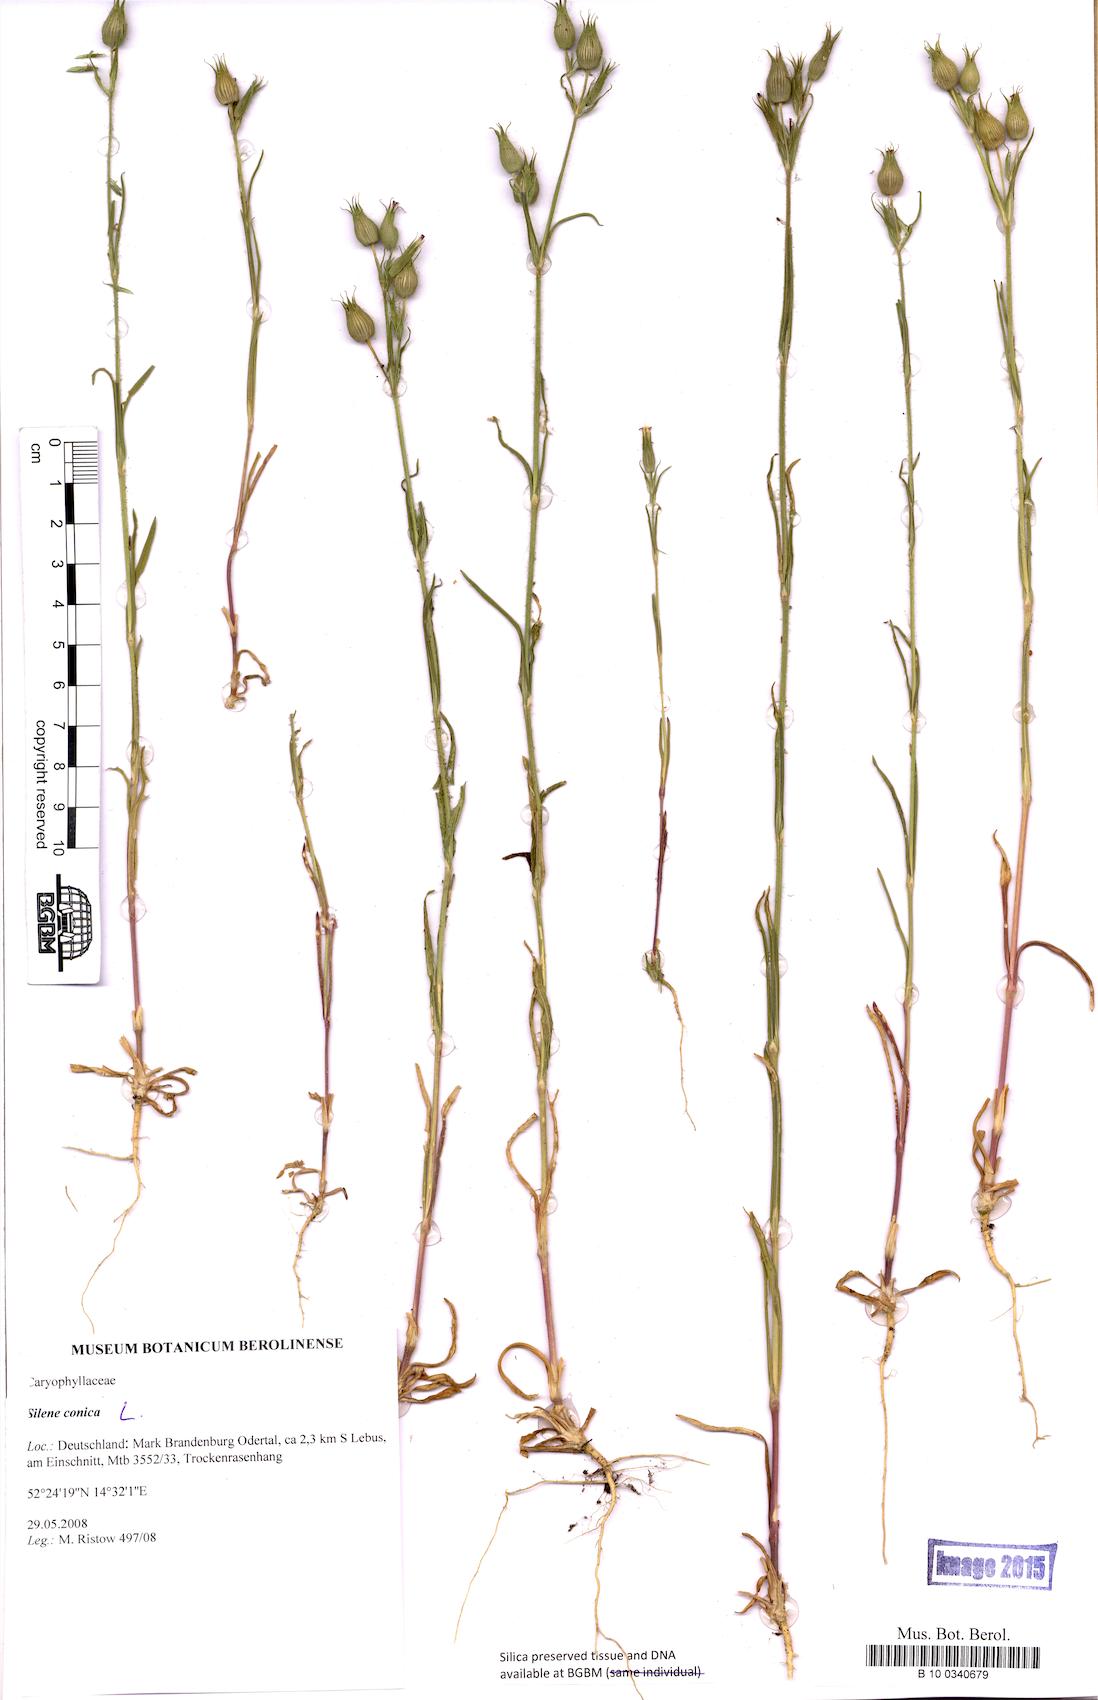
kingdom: Plantae
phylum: Tracheophyta
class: Magnoliopsida
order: Caryophyllales
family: Caryophyllaceae
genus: Silene
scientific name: Silene conica
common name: Sand catchfly
